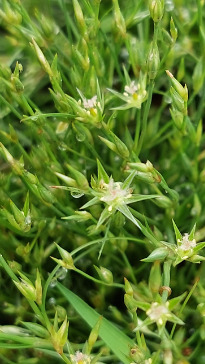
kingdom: Plantae
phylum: Tracheophyta
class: Liliopsida
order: Poales
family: Juncaceae
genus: Juncus
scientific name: Juncus bufonius
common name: Tudse-siv
